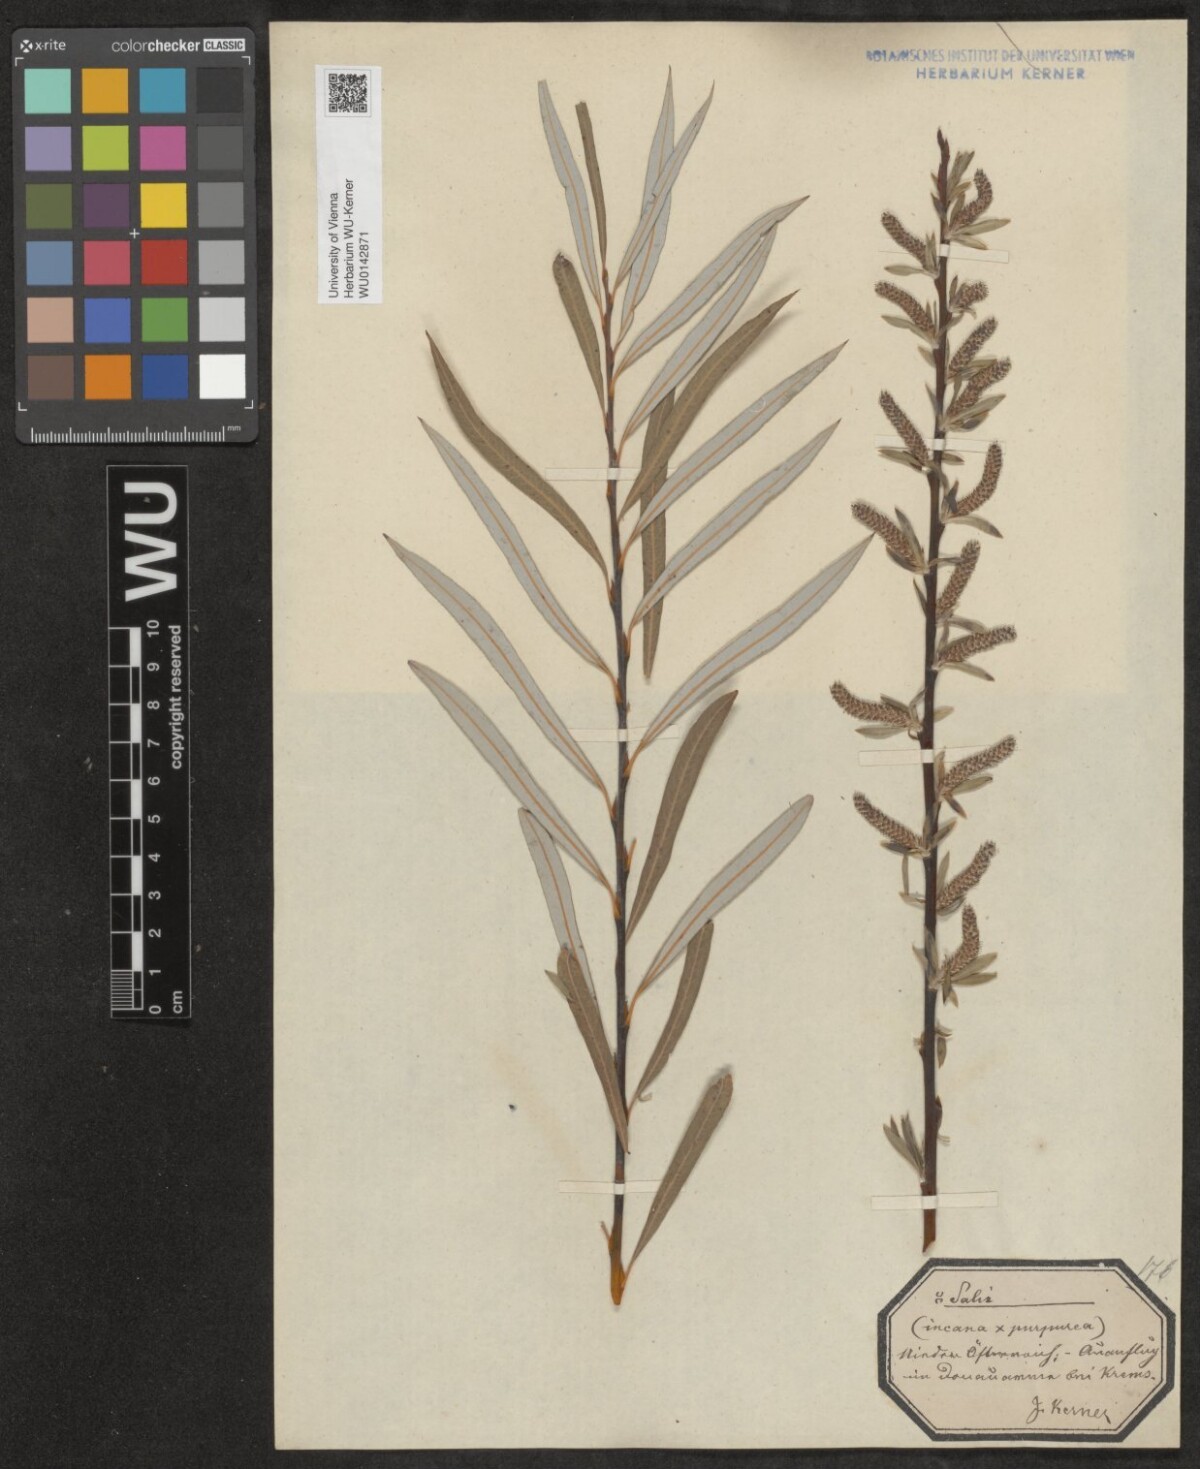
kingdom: Plantae
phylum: Tracheophyta
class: Magnoliopsida
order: Malpighiales
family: Salicaceae
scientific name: Salicaceae
